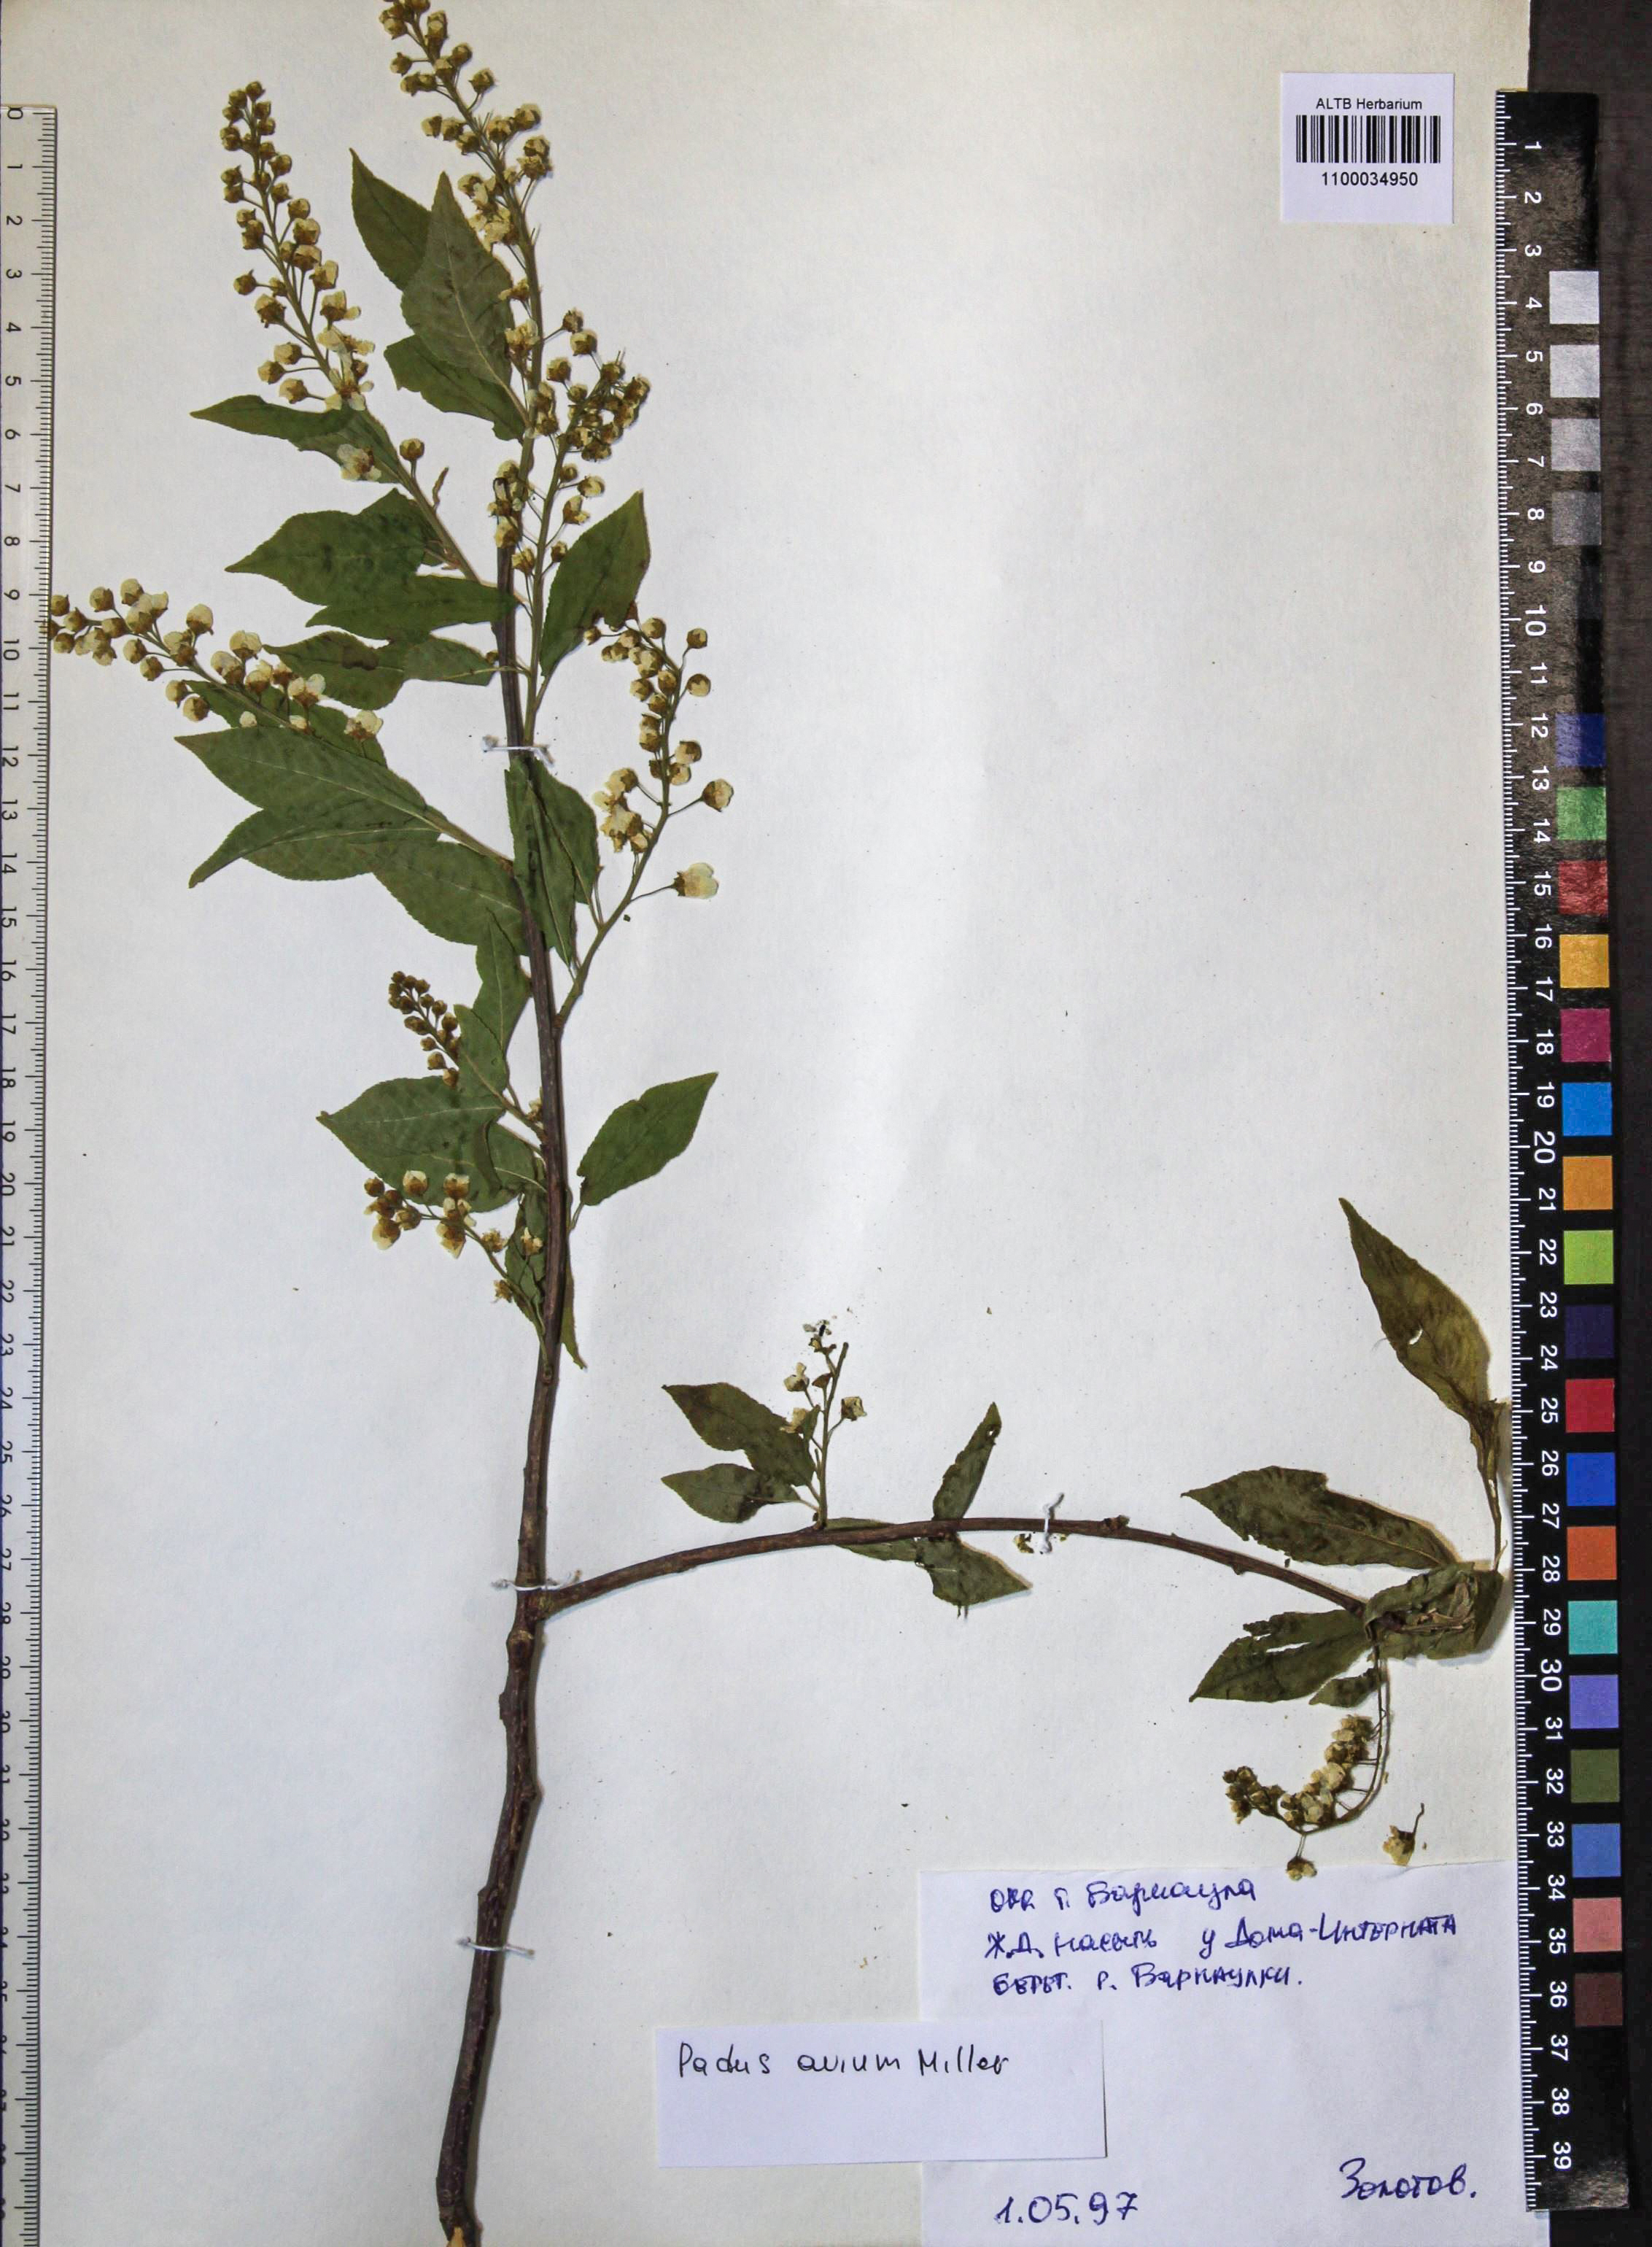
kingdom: Plantae
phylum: Tracheophyta
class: Magnoliopsida
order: Rosales
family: Rosaceae
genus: Prunus
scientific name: Prunus padus
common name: Bird cherry
